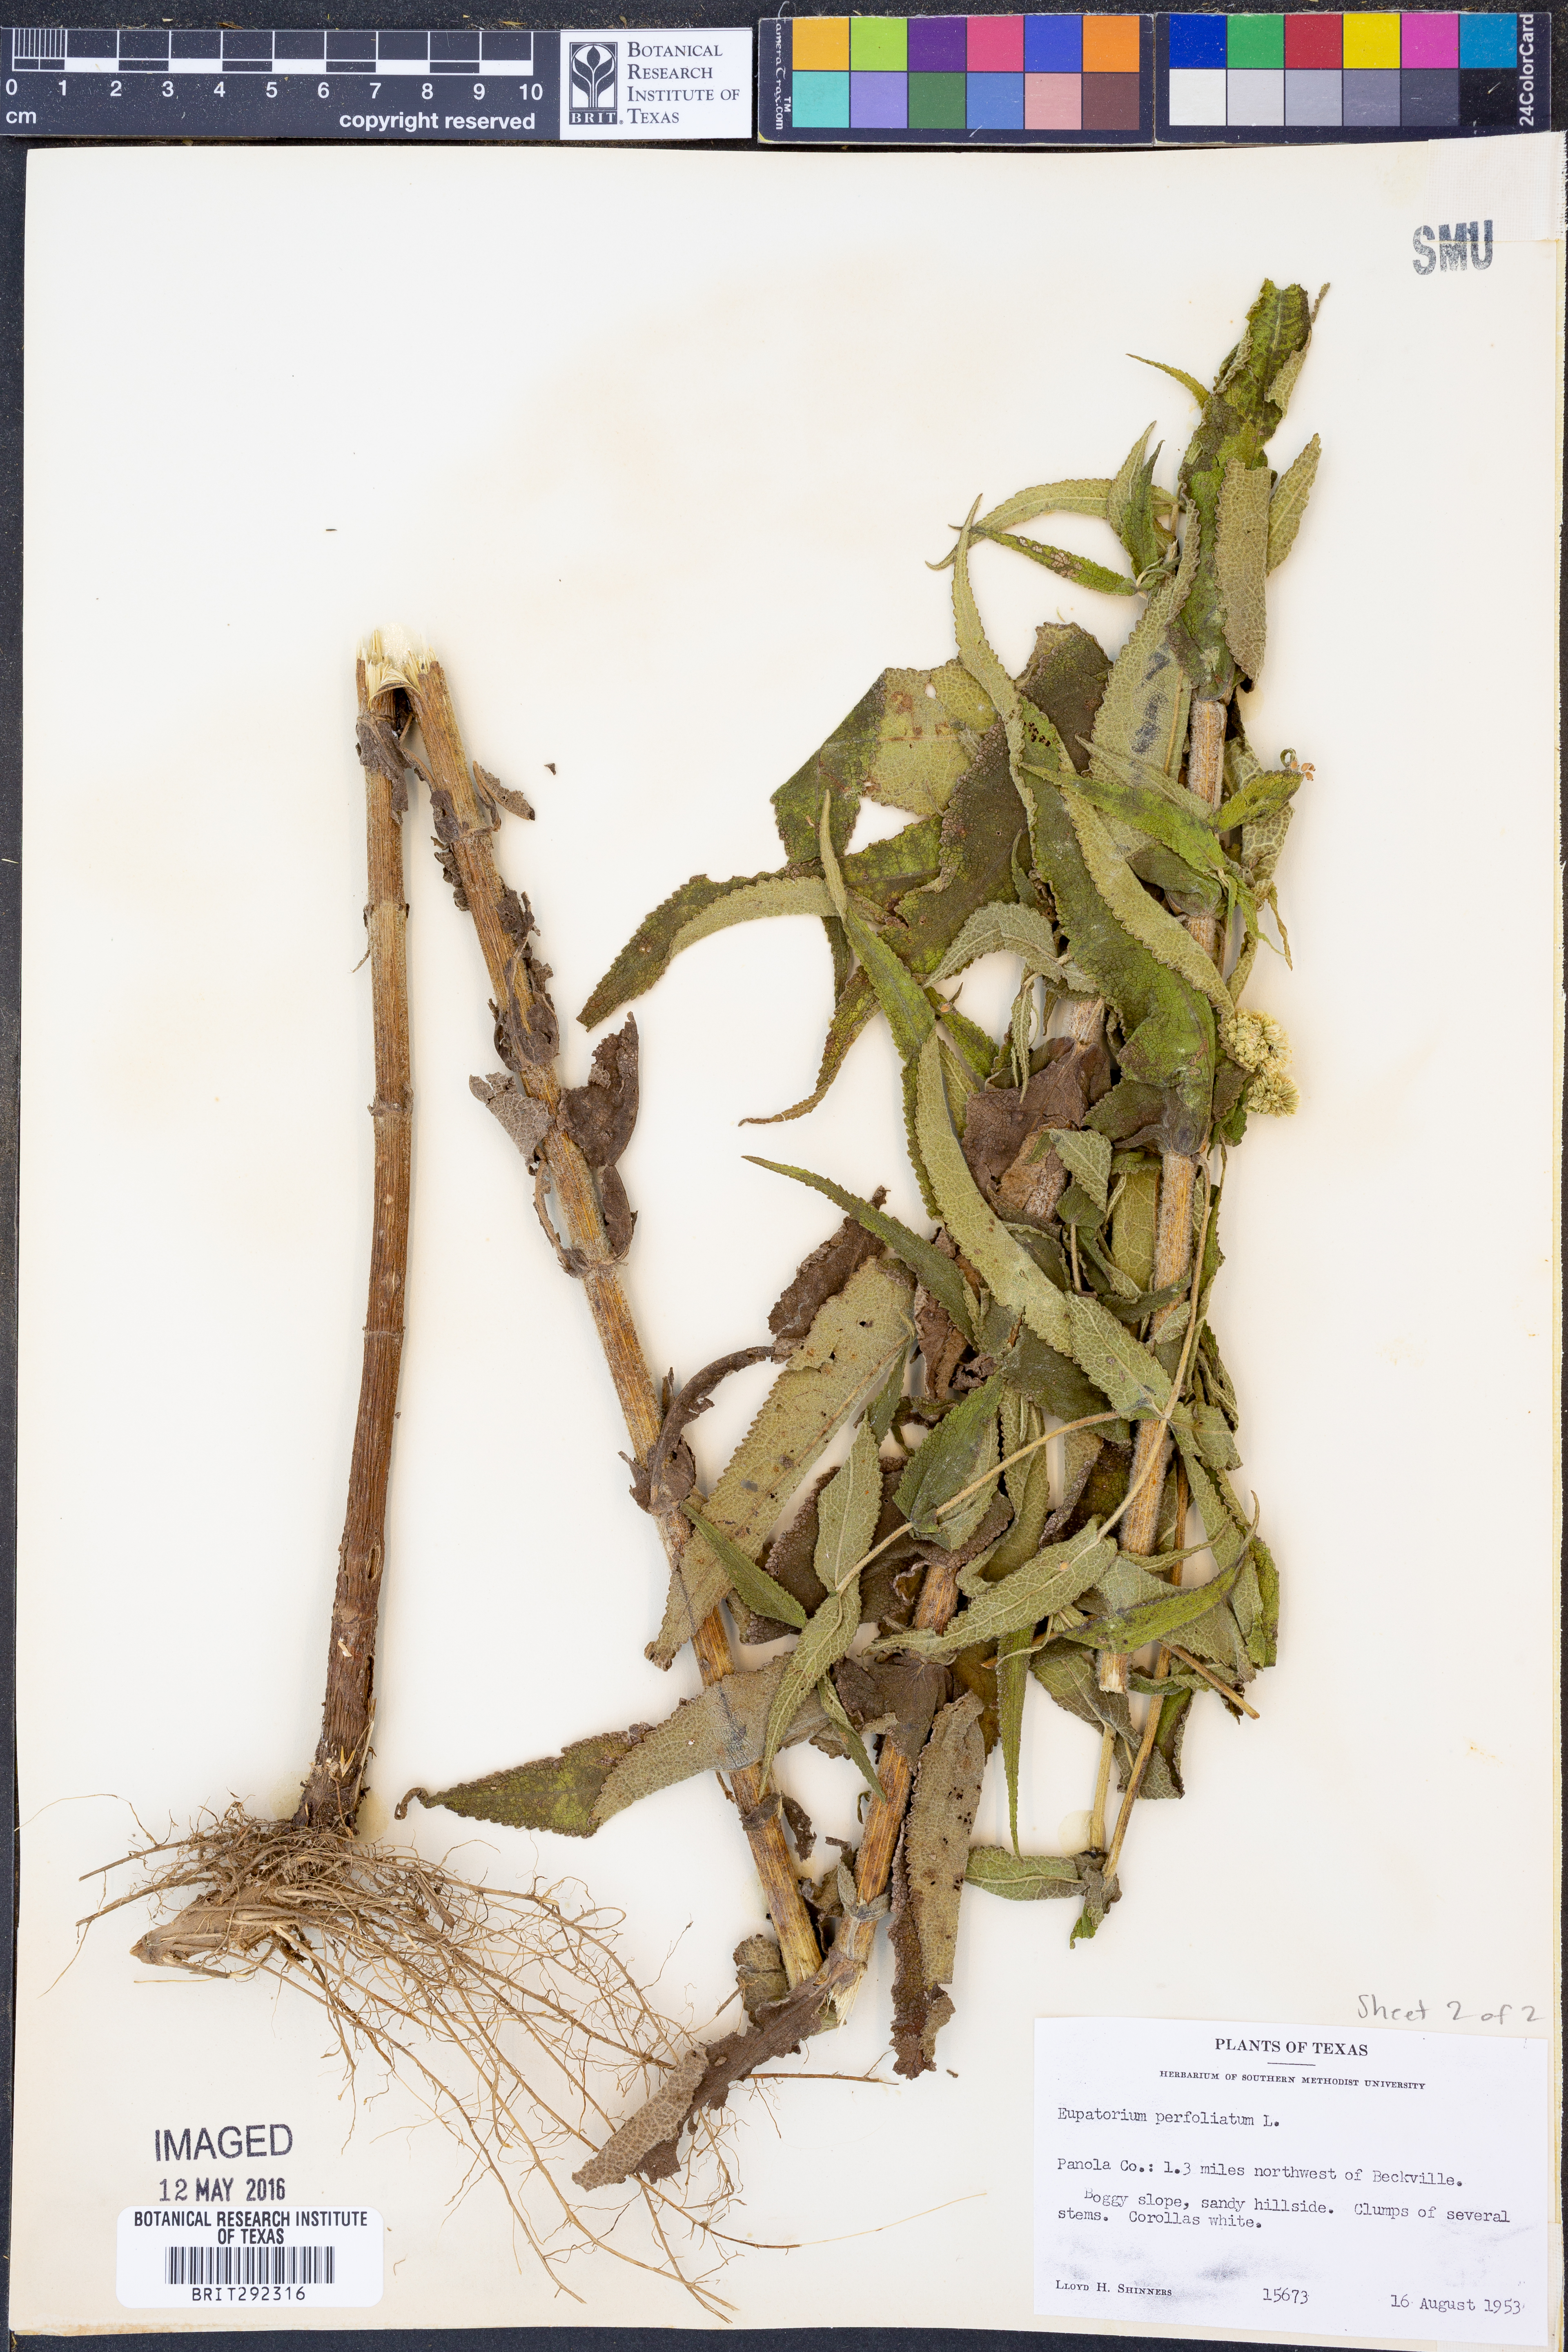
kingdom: Plantae
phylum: Tracheophyta
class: Magnoliopsida
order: Asterales
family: Asteraceae
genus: Eupatorium
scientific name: Eupatorium perfoliatum
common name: Boneset
